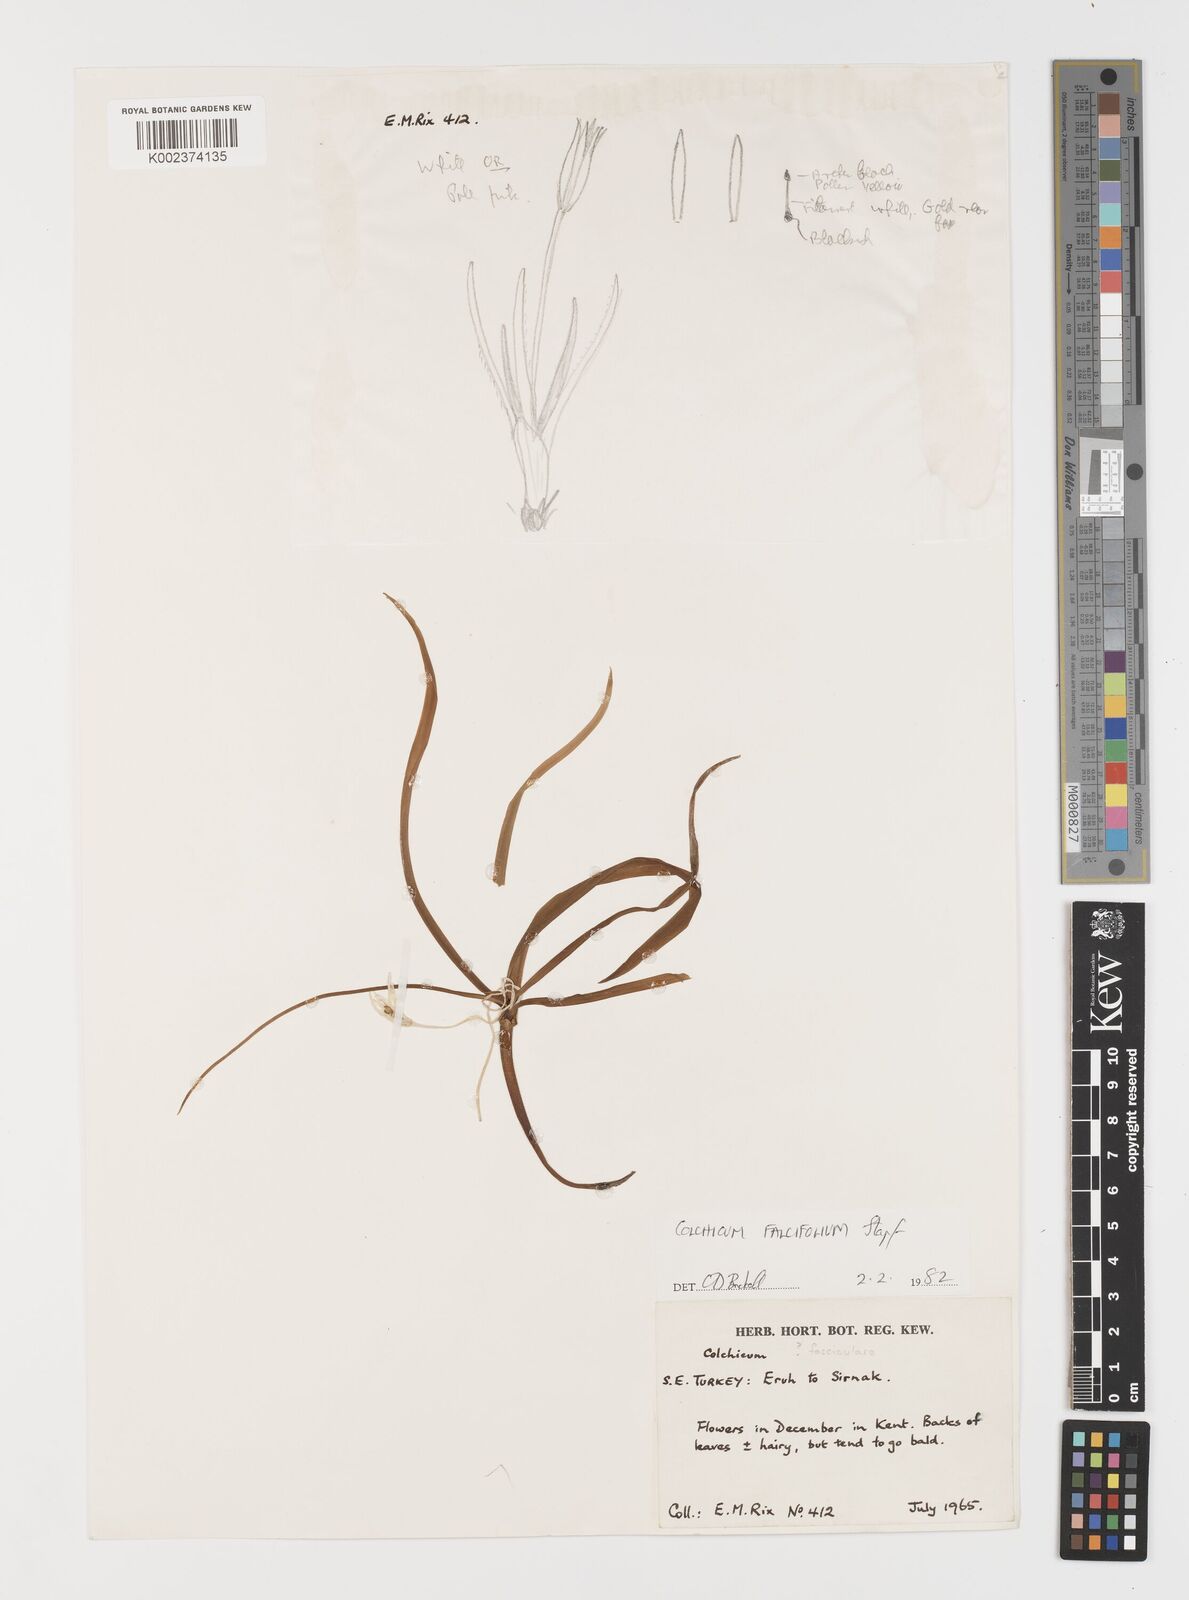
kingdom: Plantae
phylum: Tracheophyta
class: Liliopsida
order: Asparagales
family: Iridaceae
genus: Iris
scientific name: Iris caucasica
